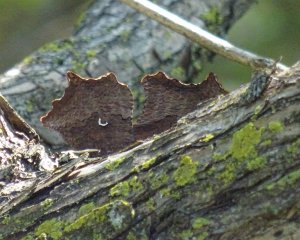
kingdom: Animalia
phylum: Arthropoda
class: Insecta
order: Lepidoptera
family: Nymphalidae
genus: Polygonia
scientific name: Polygonia comma
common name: Eastern Comma
